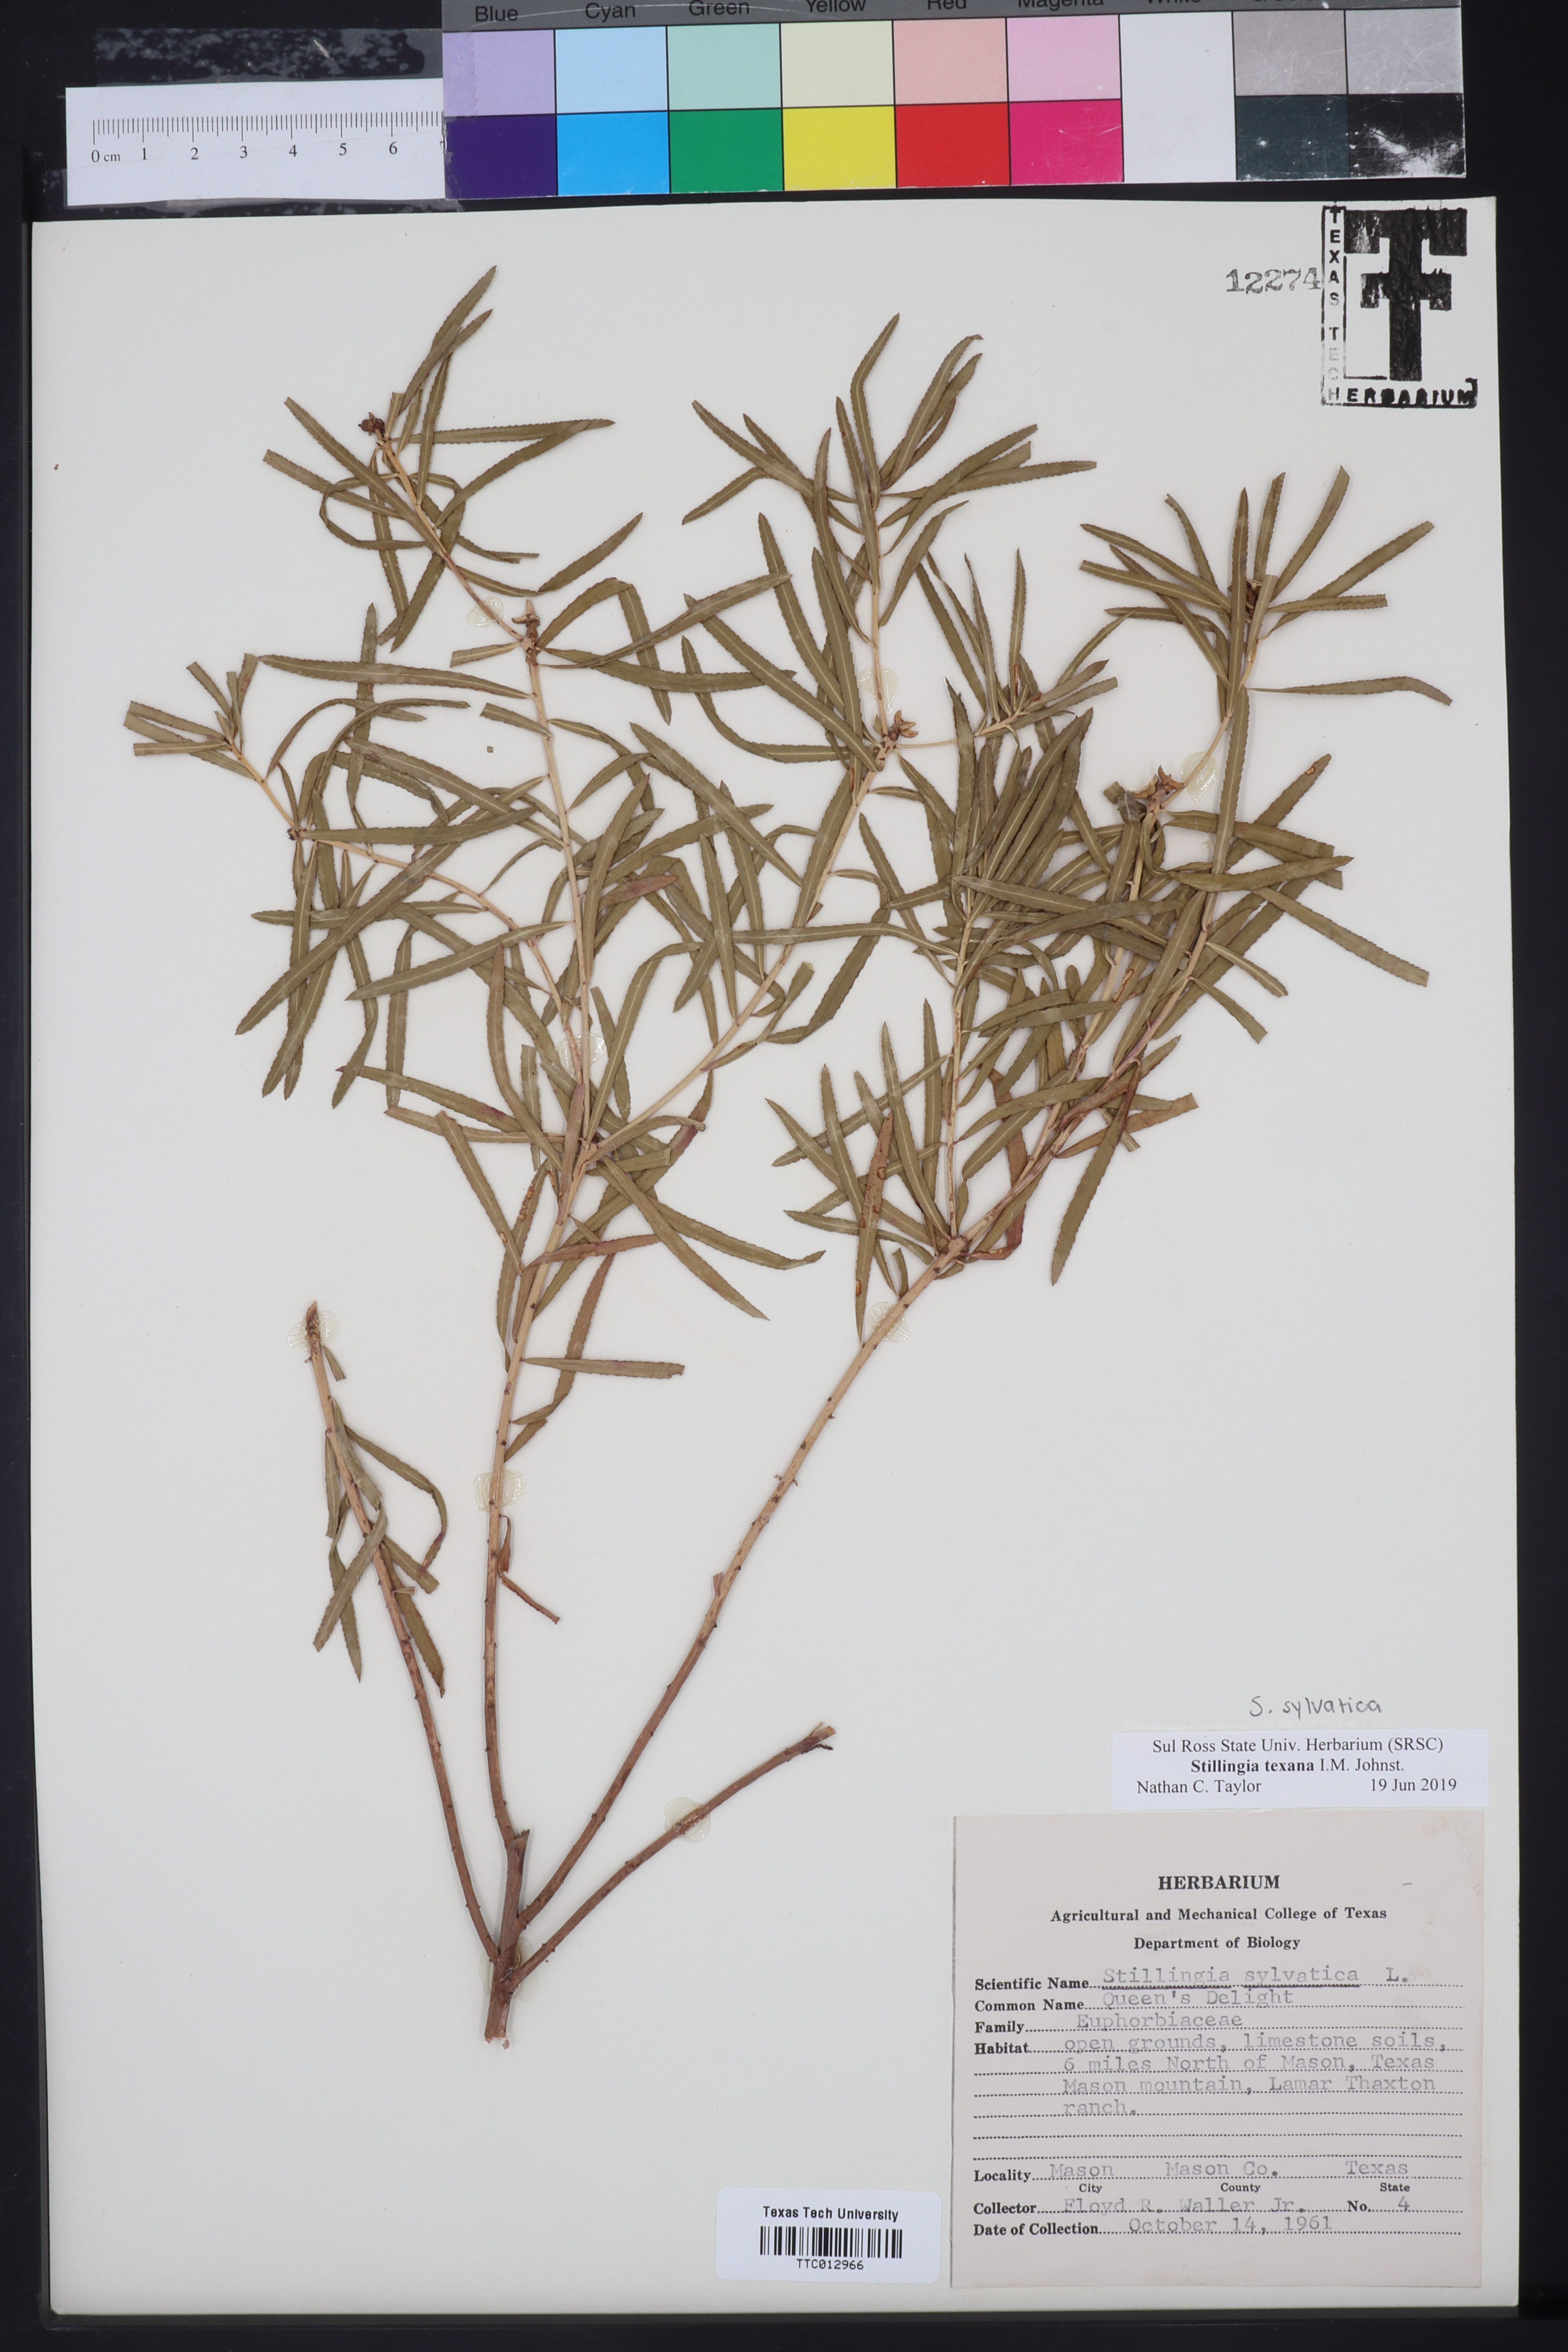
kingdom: Plantae
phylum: Tracheophyta
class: Magnoliopsida
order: Malpighiales
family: Euphorbiaceae
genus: Stillingia
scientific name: Stillingia texana
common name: Texas stillingia
